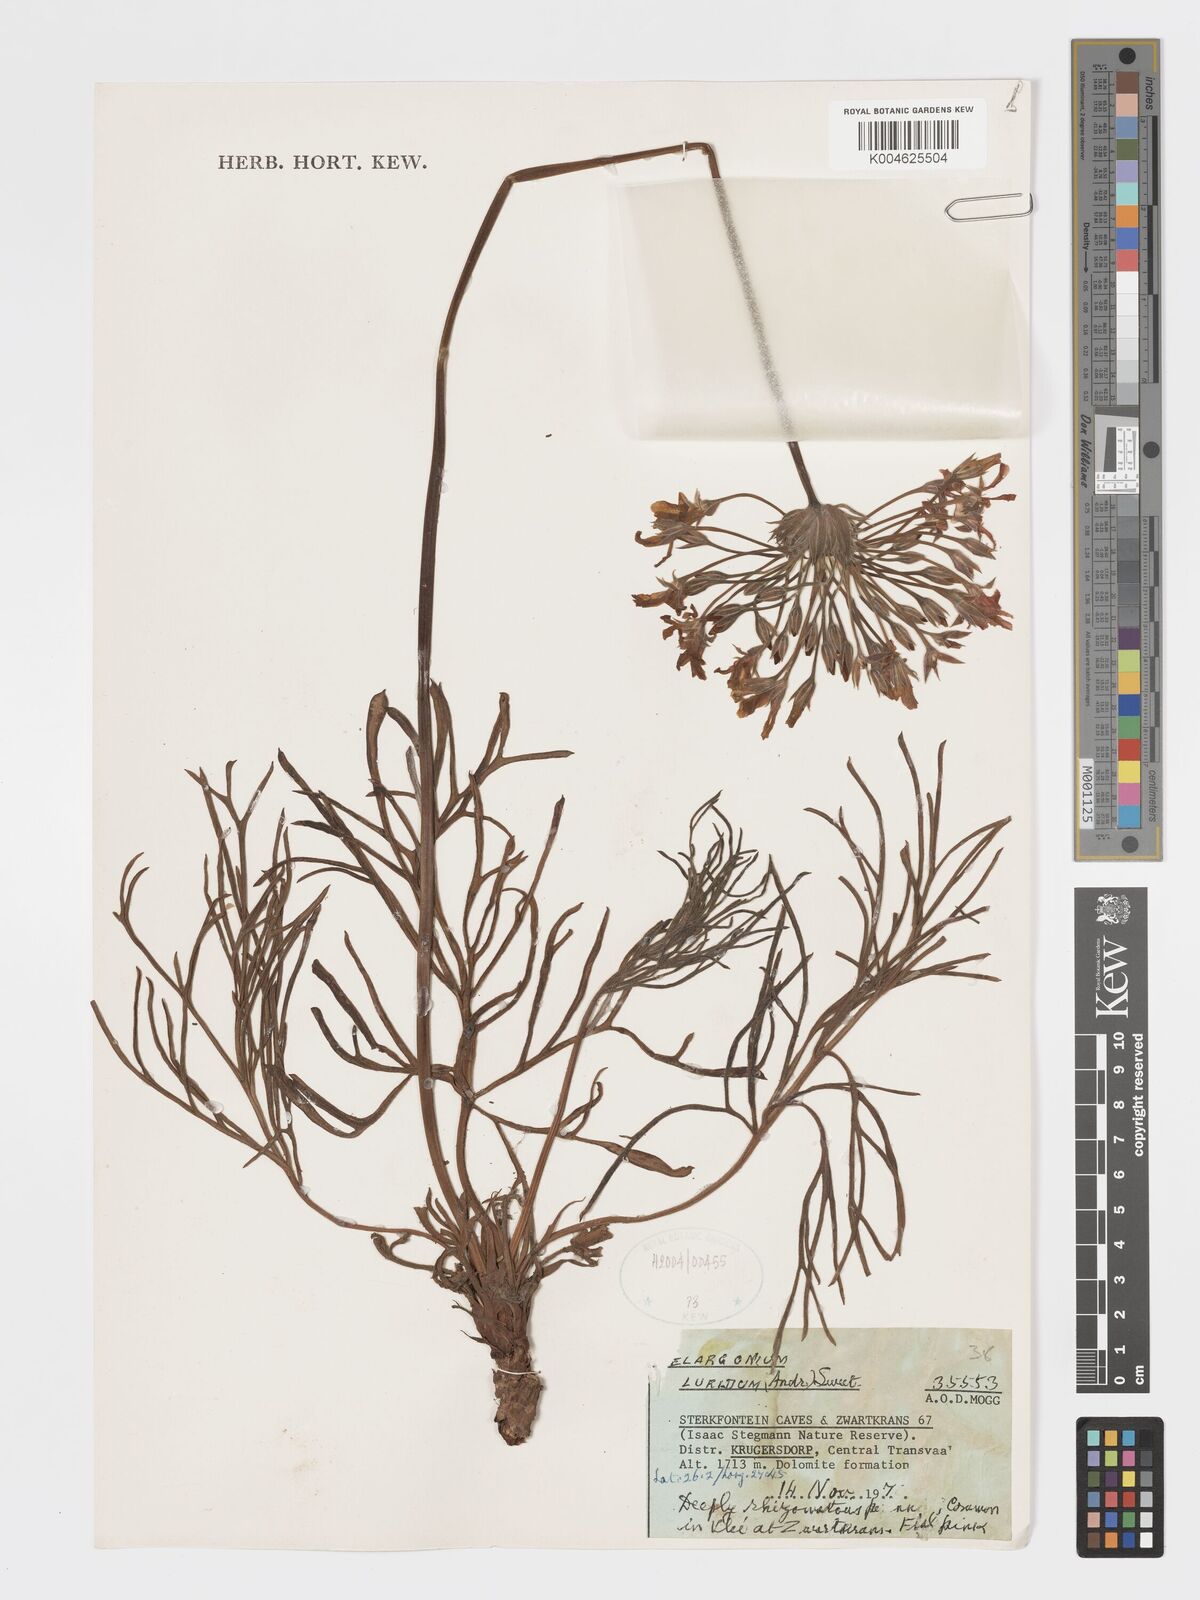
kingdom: Plantae
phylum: Tracheophyta
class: Magnoliopsida
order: Geraniales
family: Geraniaceae
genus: Pelargonium
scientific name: Pelargonium luridum
